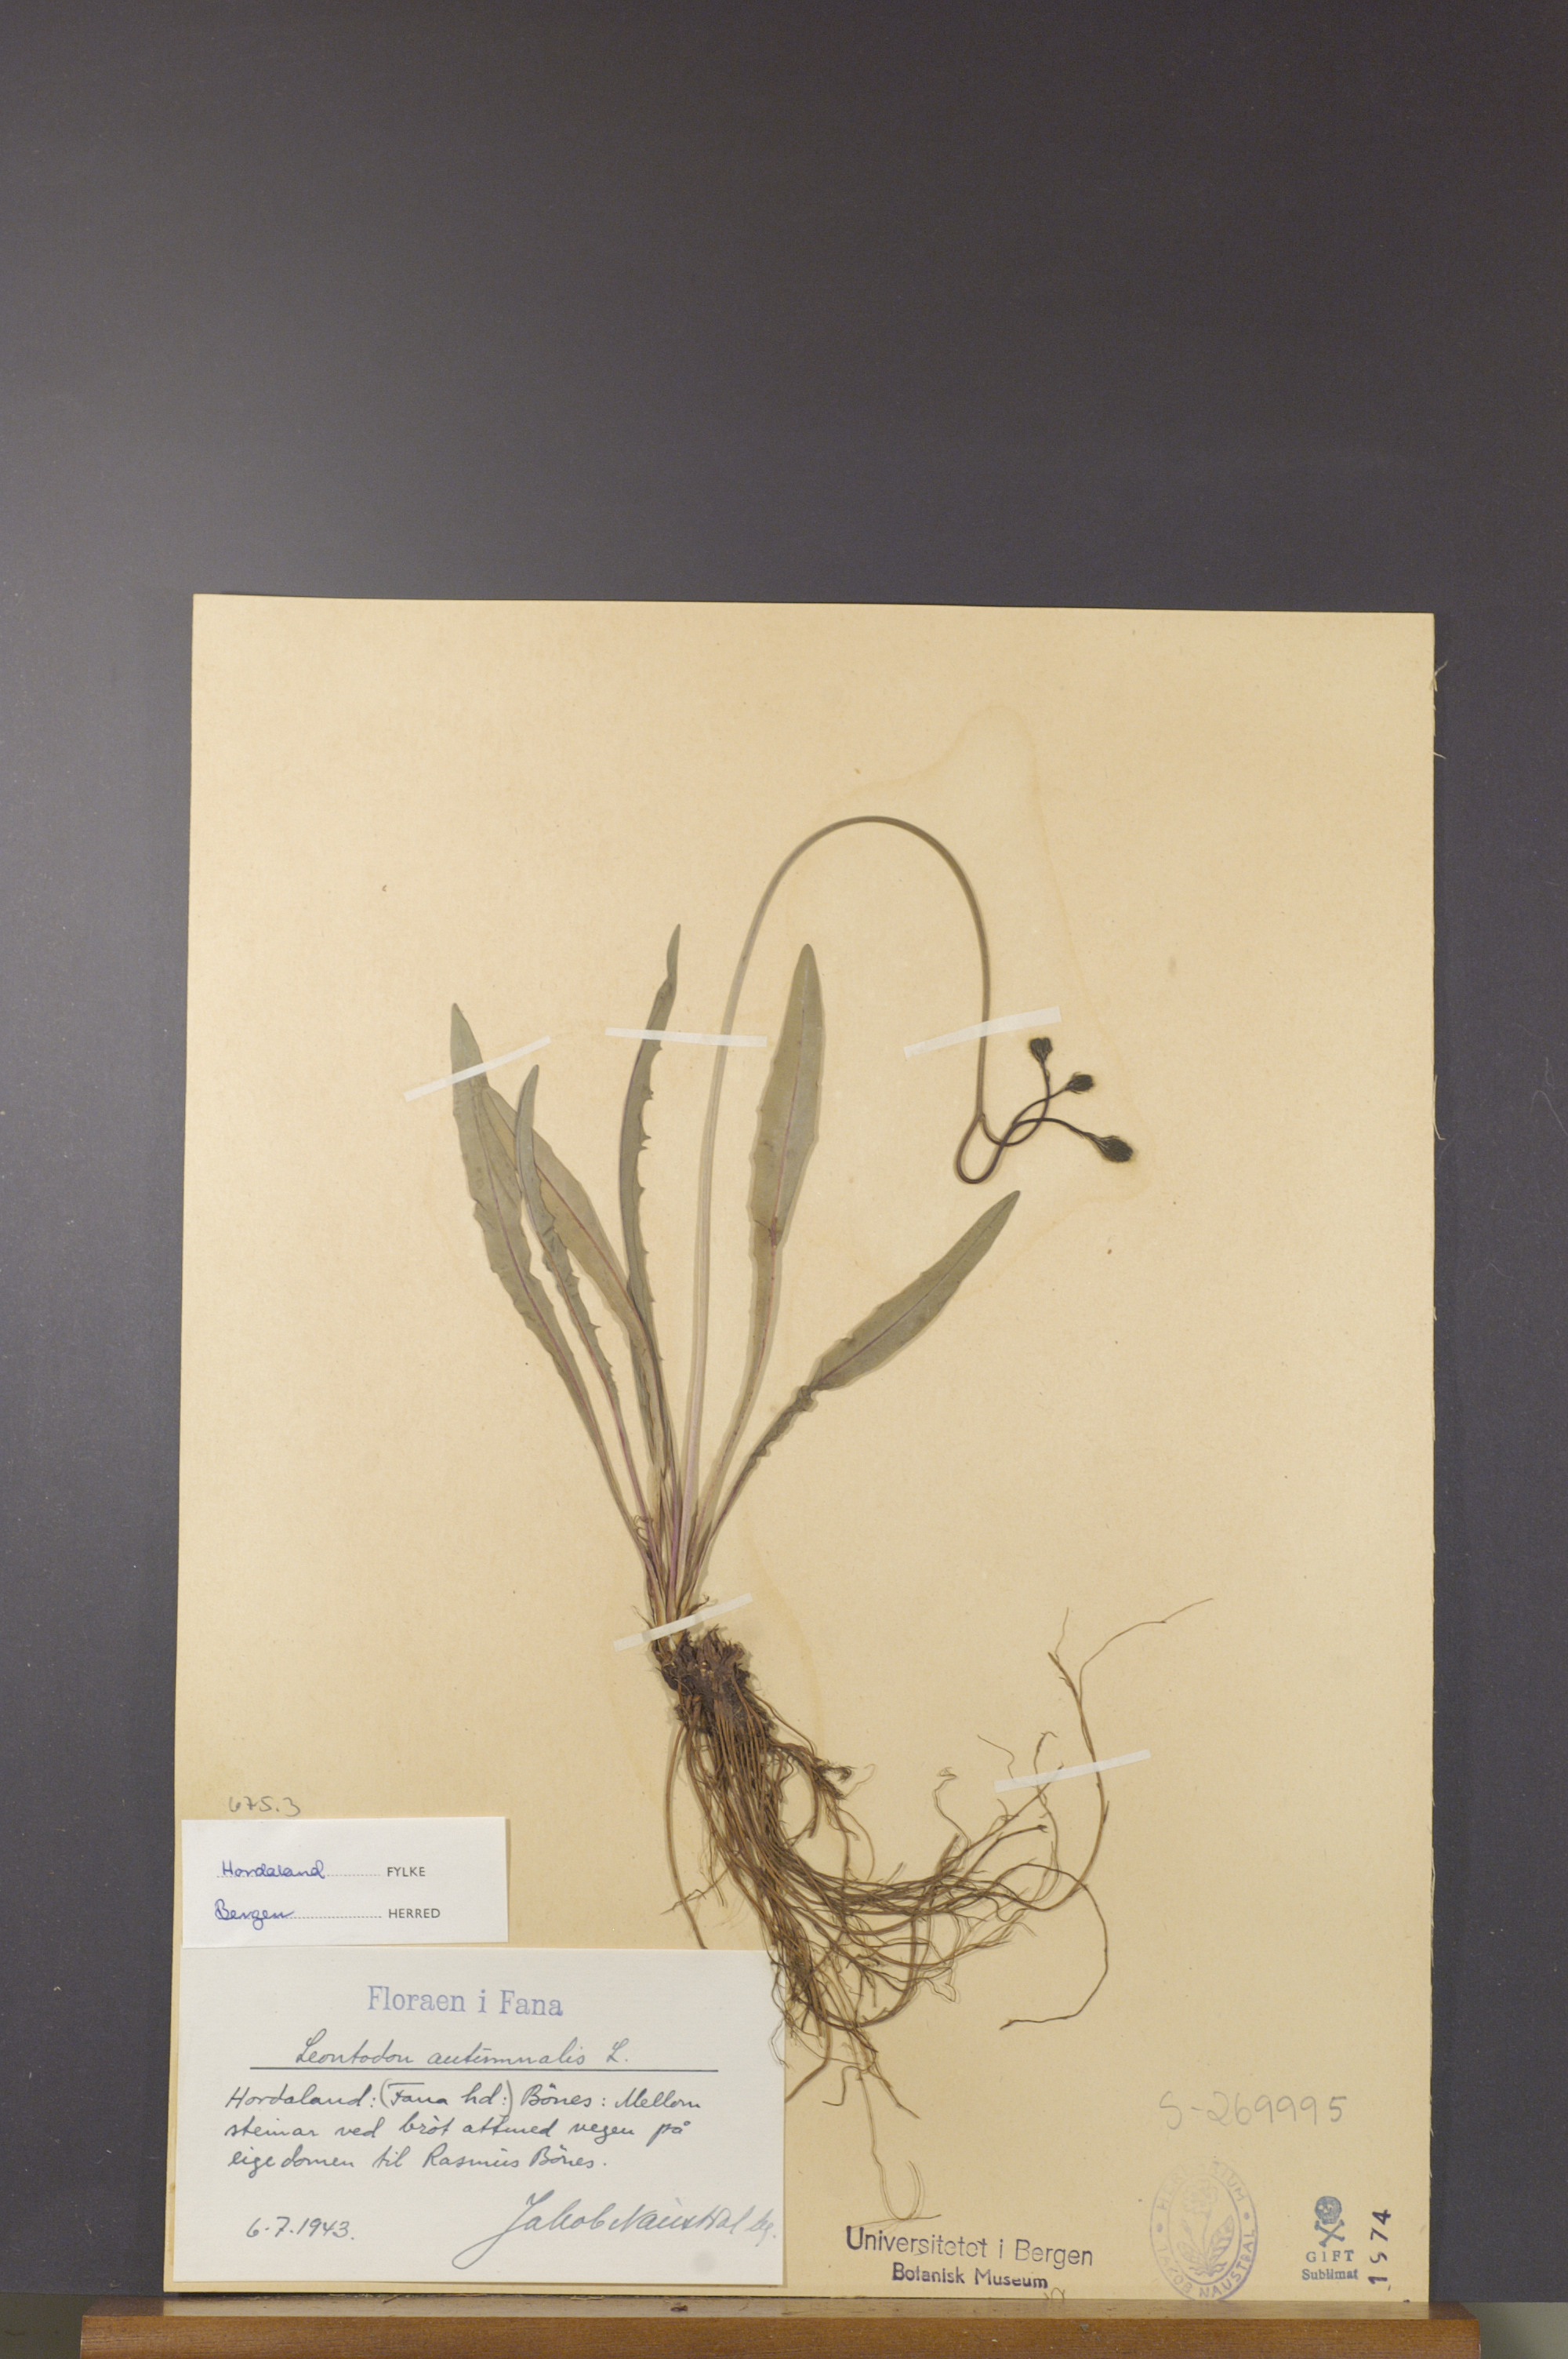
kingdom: Plantae
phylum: Tracheophyta
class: Magnoliopsida
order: Asterales
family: Asteraceae
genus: Scorzoneroides
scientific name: Scorzoneroides autumnalis
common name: Autumn hawkbit
